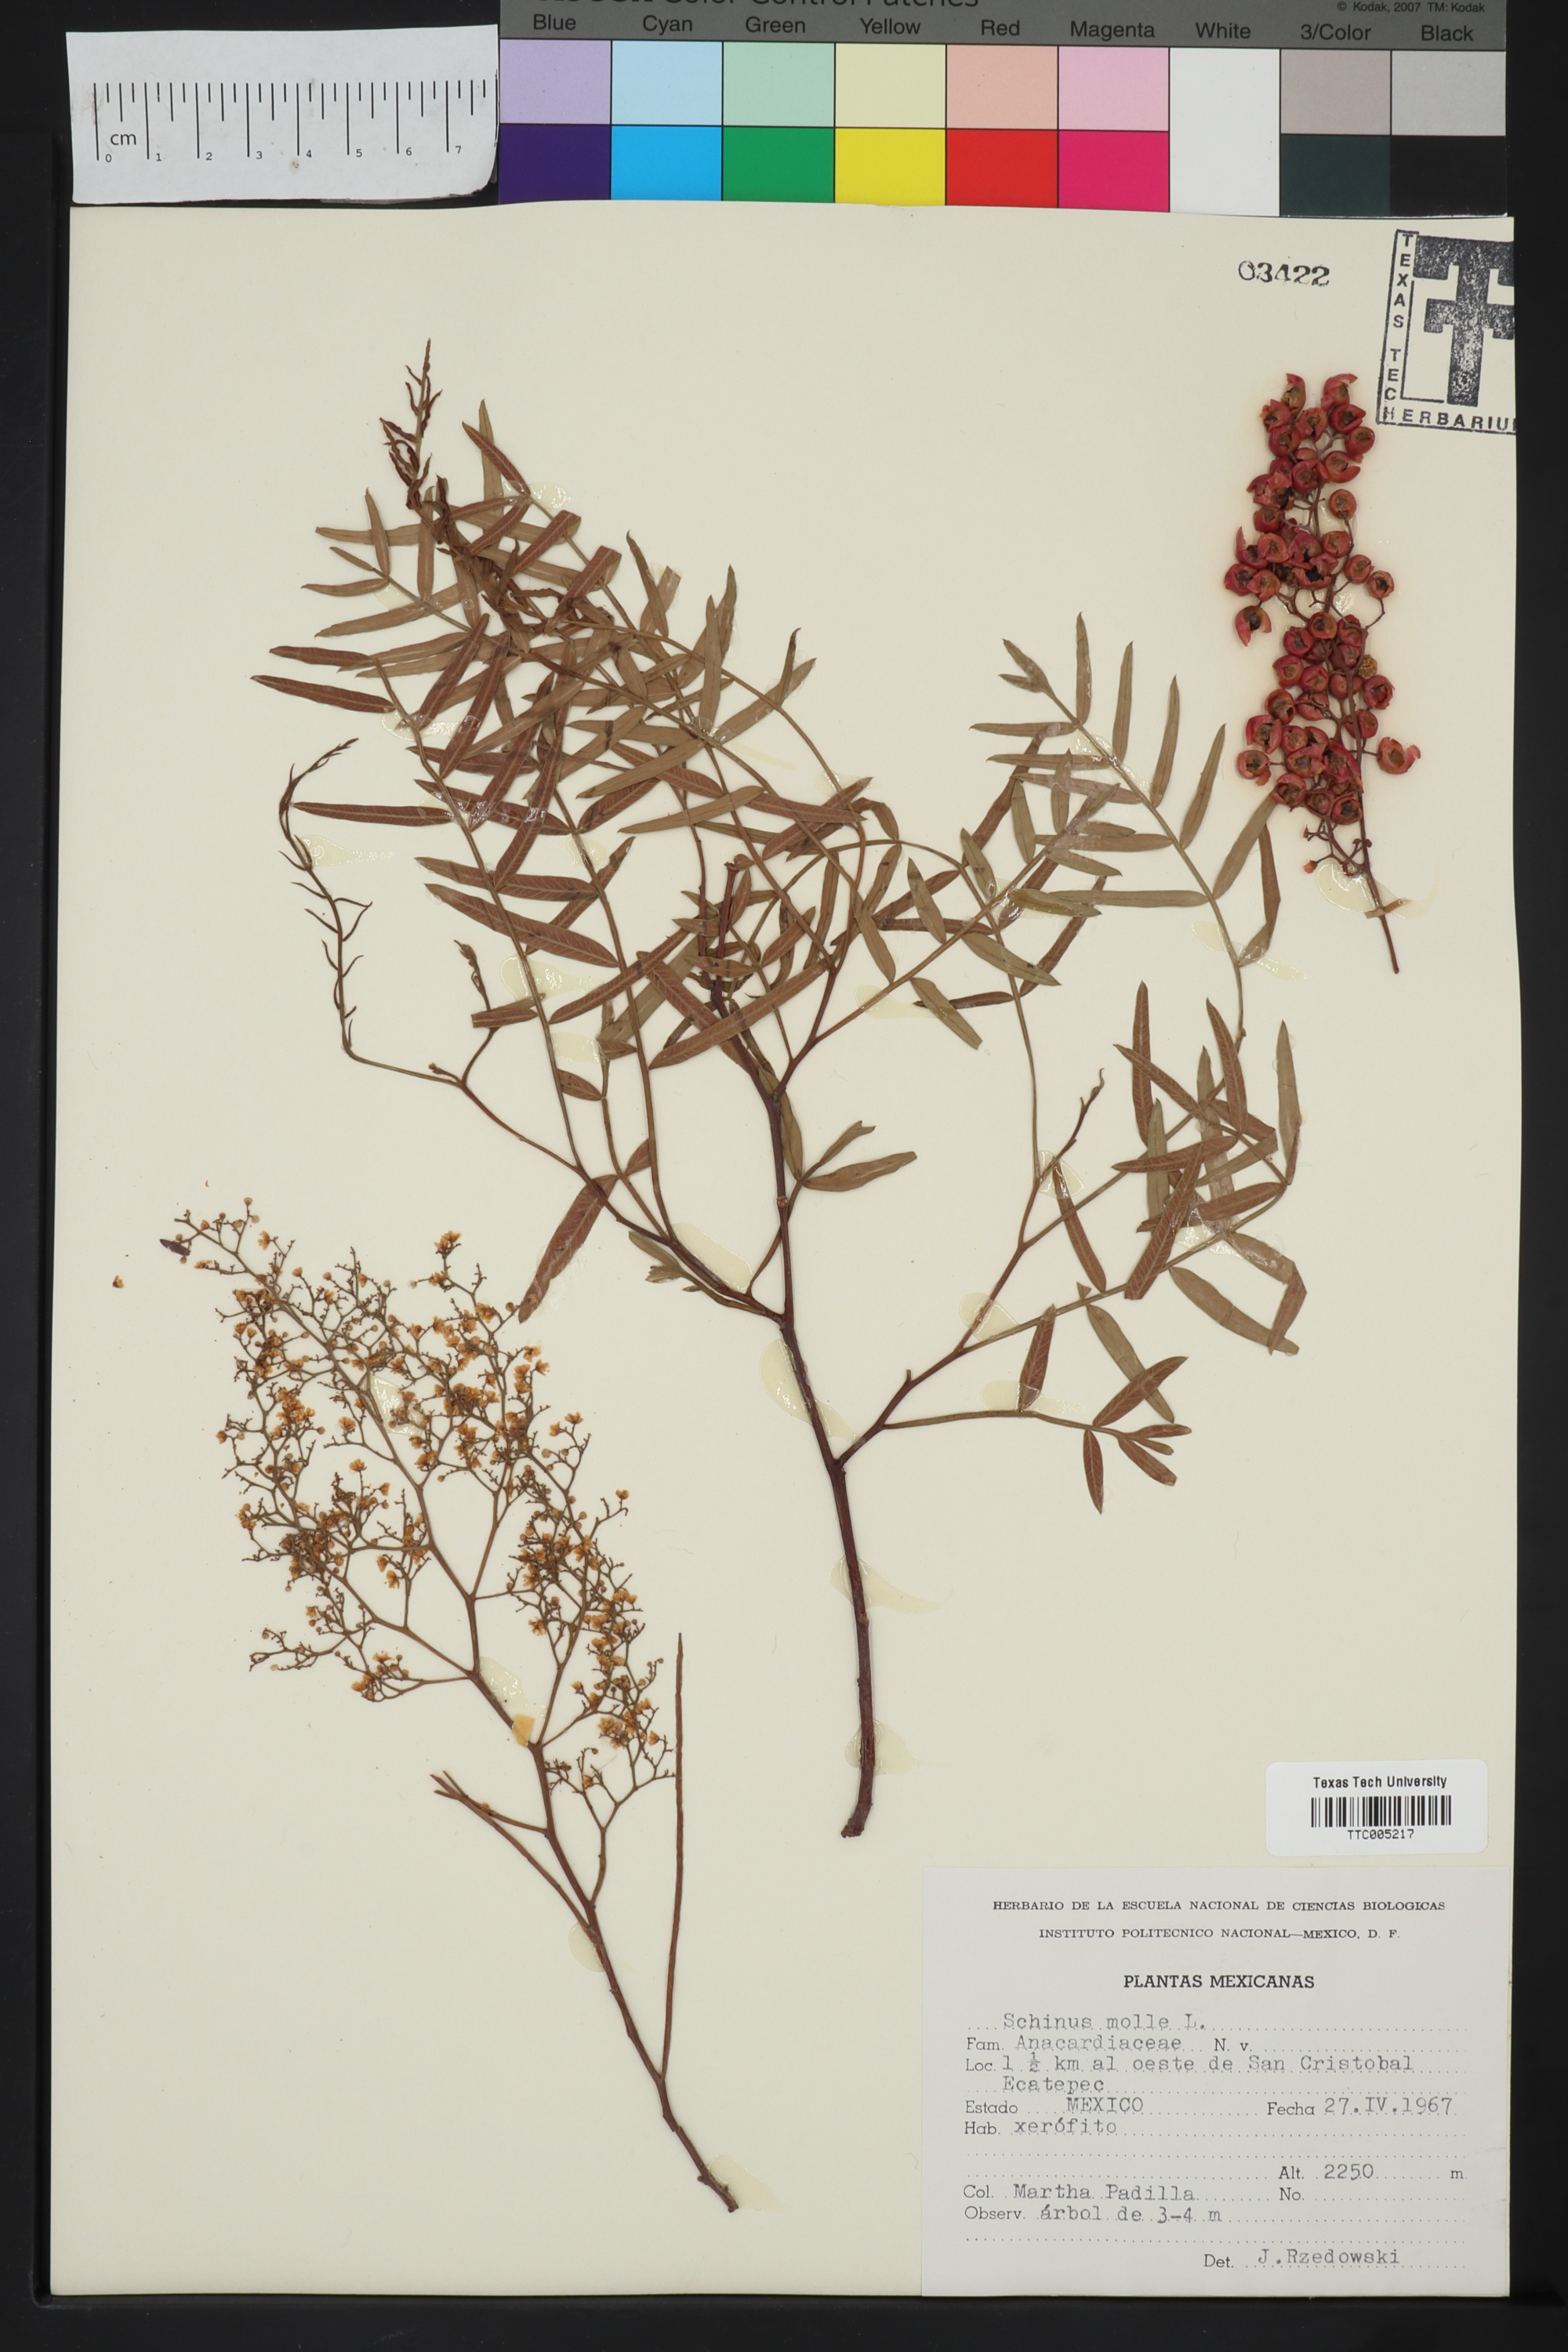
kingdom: Plantae
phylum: Tracheophyta
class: Magnoliopsida
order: Sapindales
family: Anacardiaceae
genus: Schinus
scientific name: Schinus molle
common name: Peruvian peppertree
